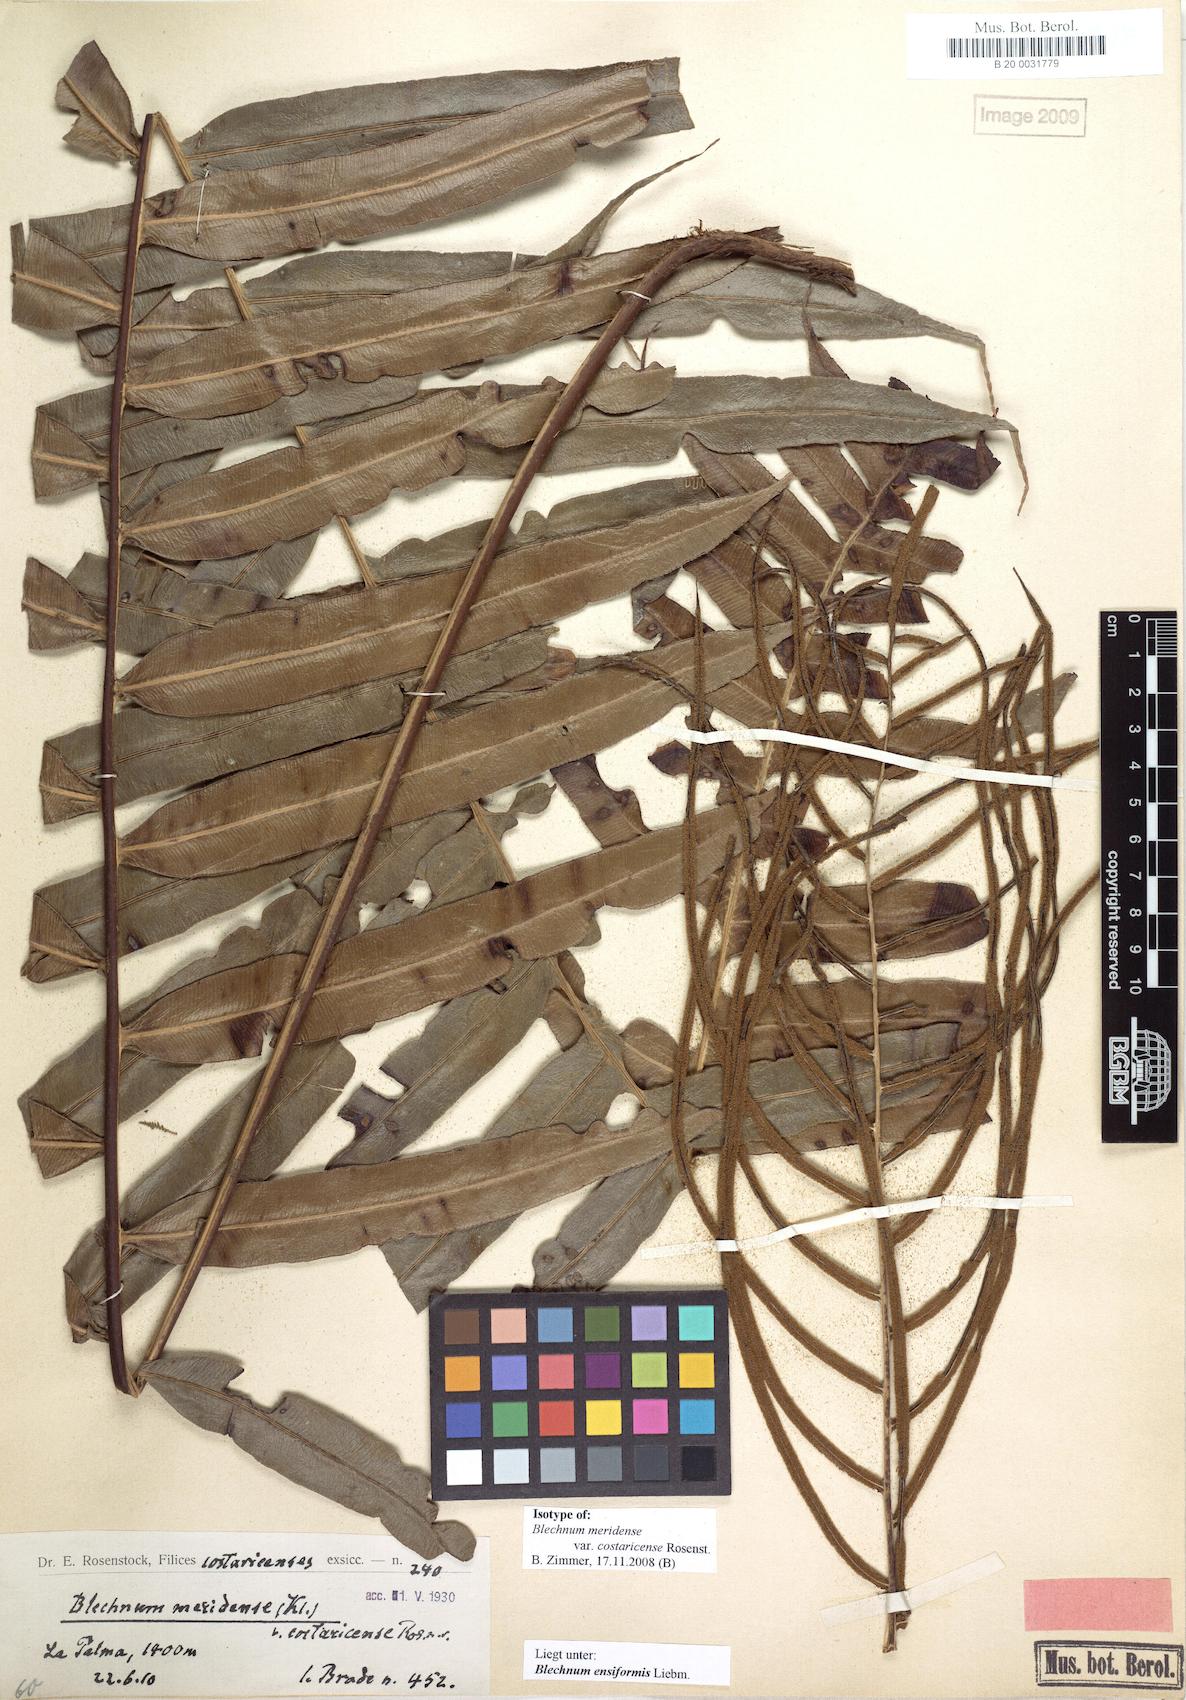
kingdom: Plantae
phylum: Tracheophyta
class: Polypodiopsida
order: Polypodiales
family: Blechnaceae
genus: Lomaridium
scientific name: Lomaridium acutum
